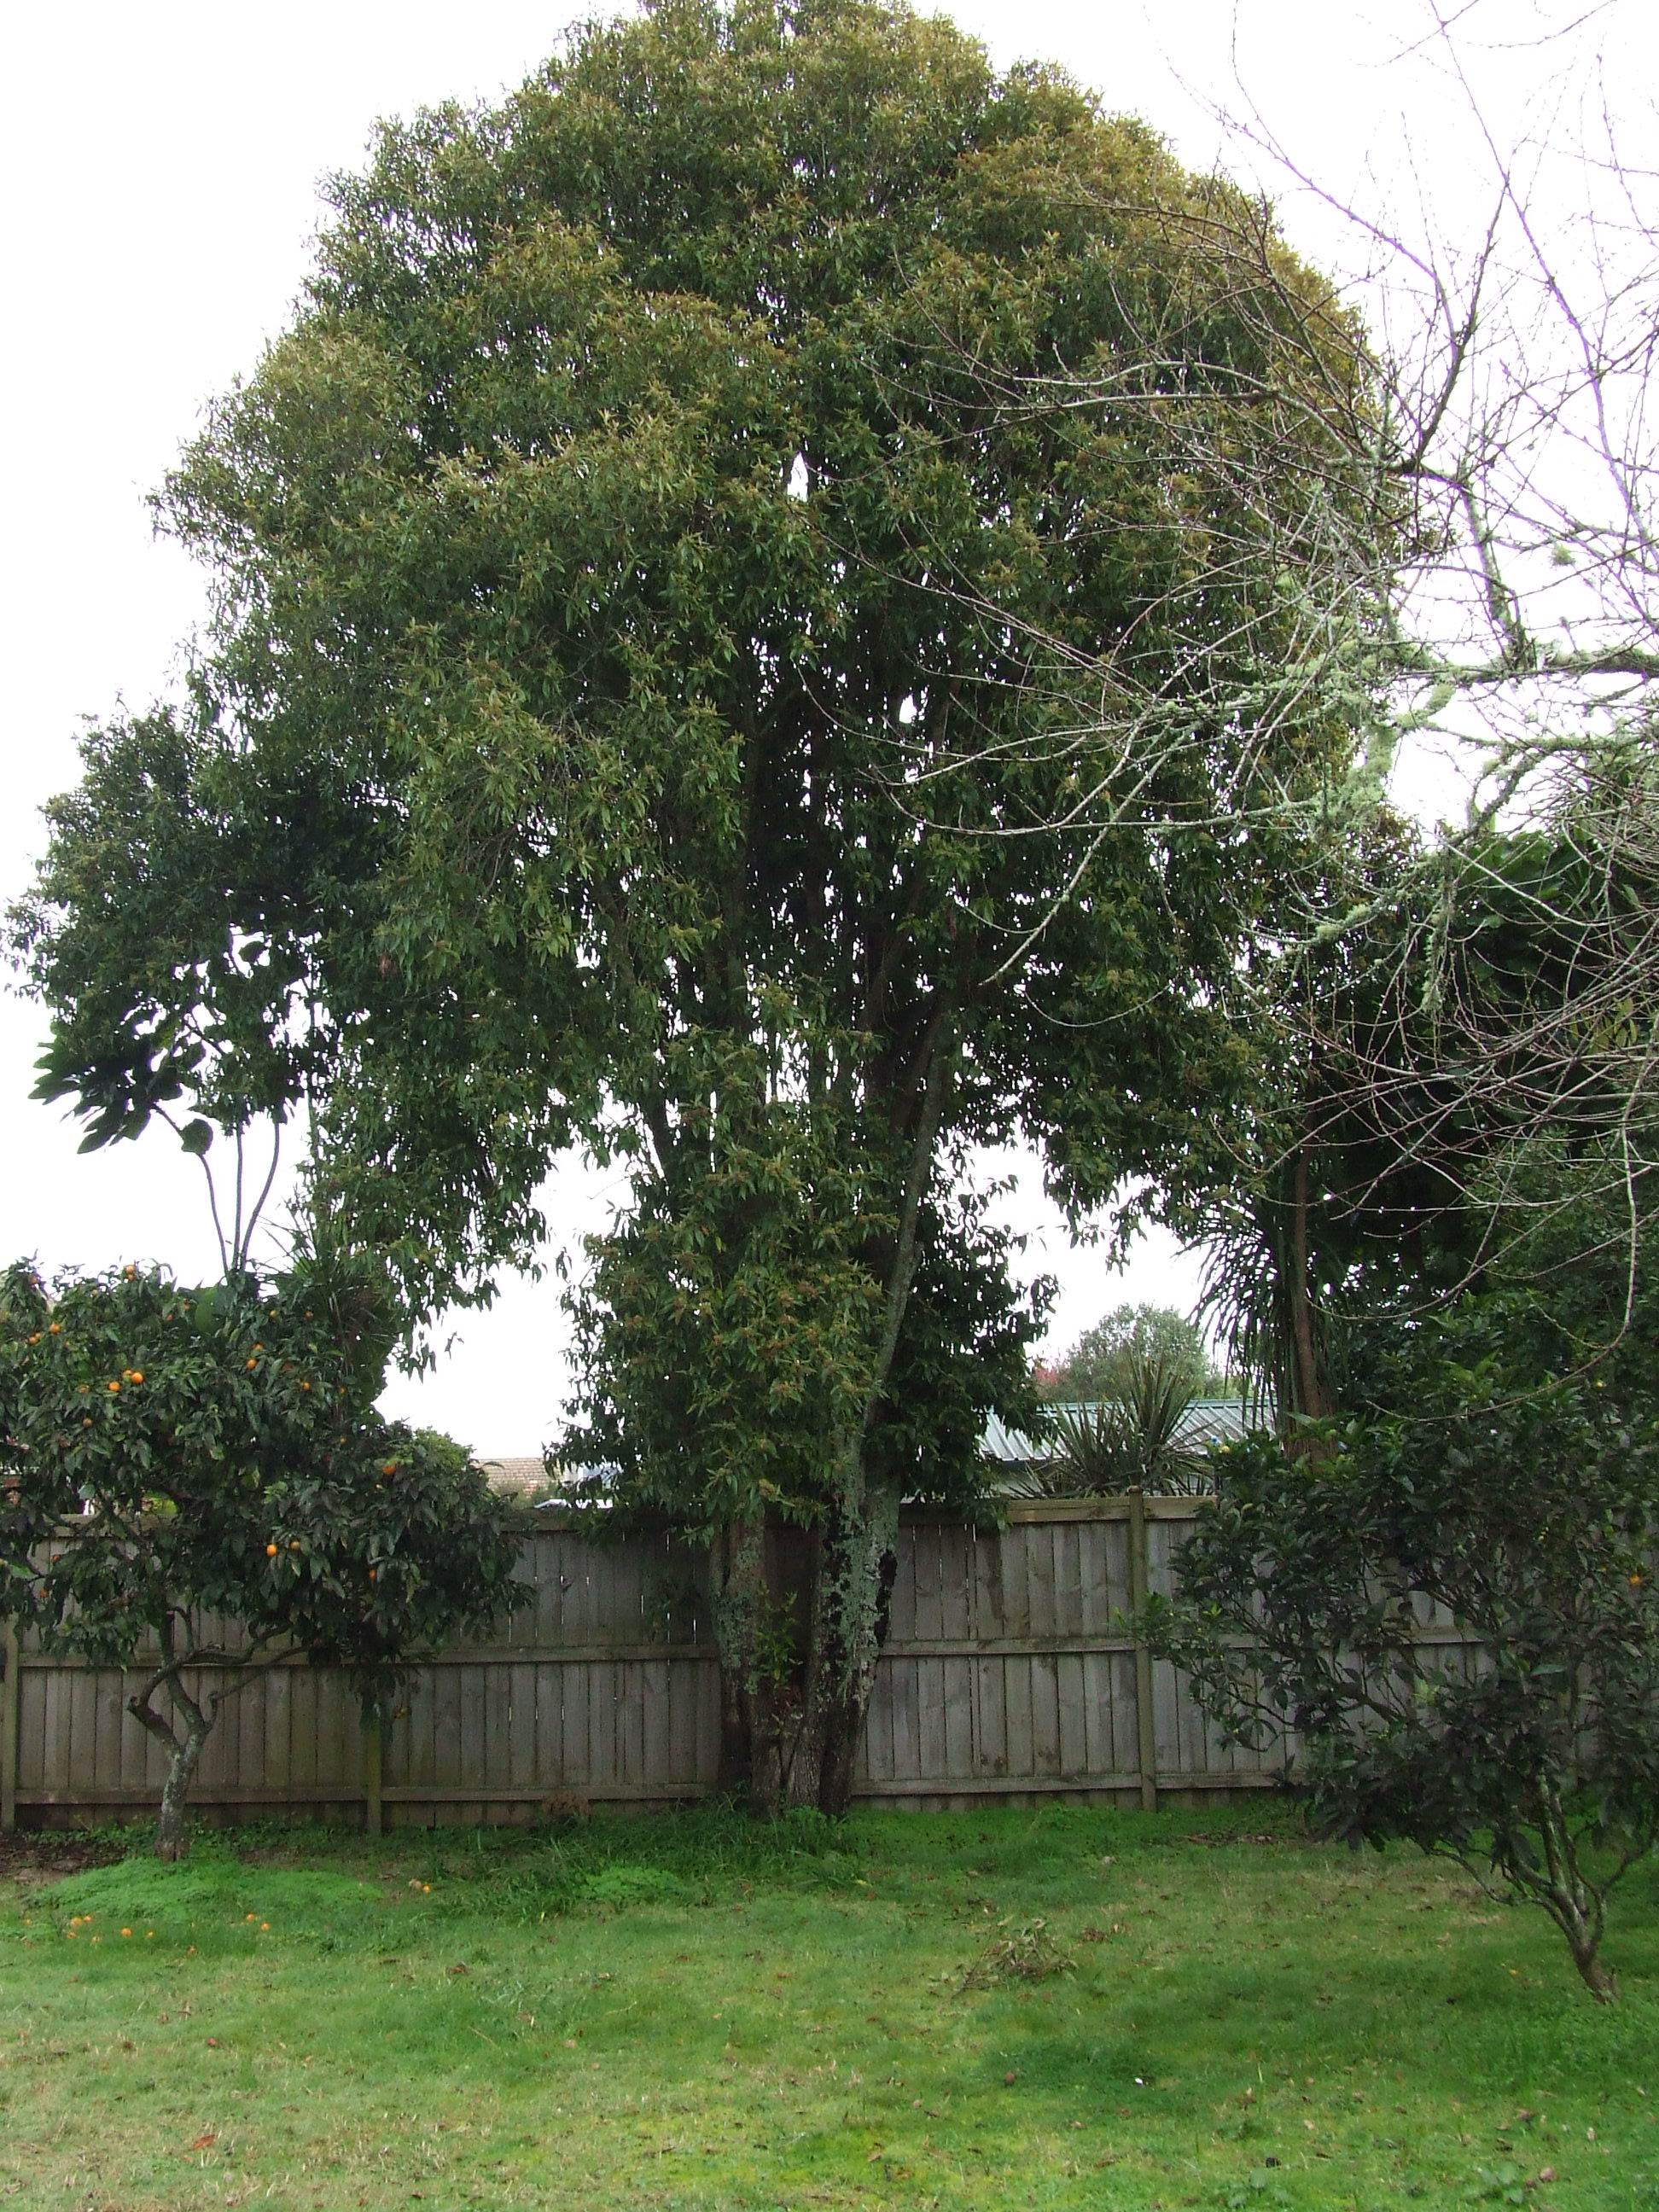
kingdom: Plantae
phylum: Tracheophyta
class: Magnoliopsida
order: Myrtales
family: Myrtaceae
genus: Backhousia
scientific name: Backhousia citriodora
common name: Australian lemon myrtle
